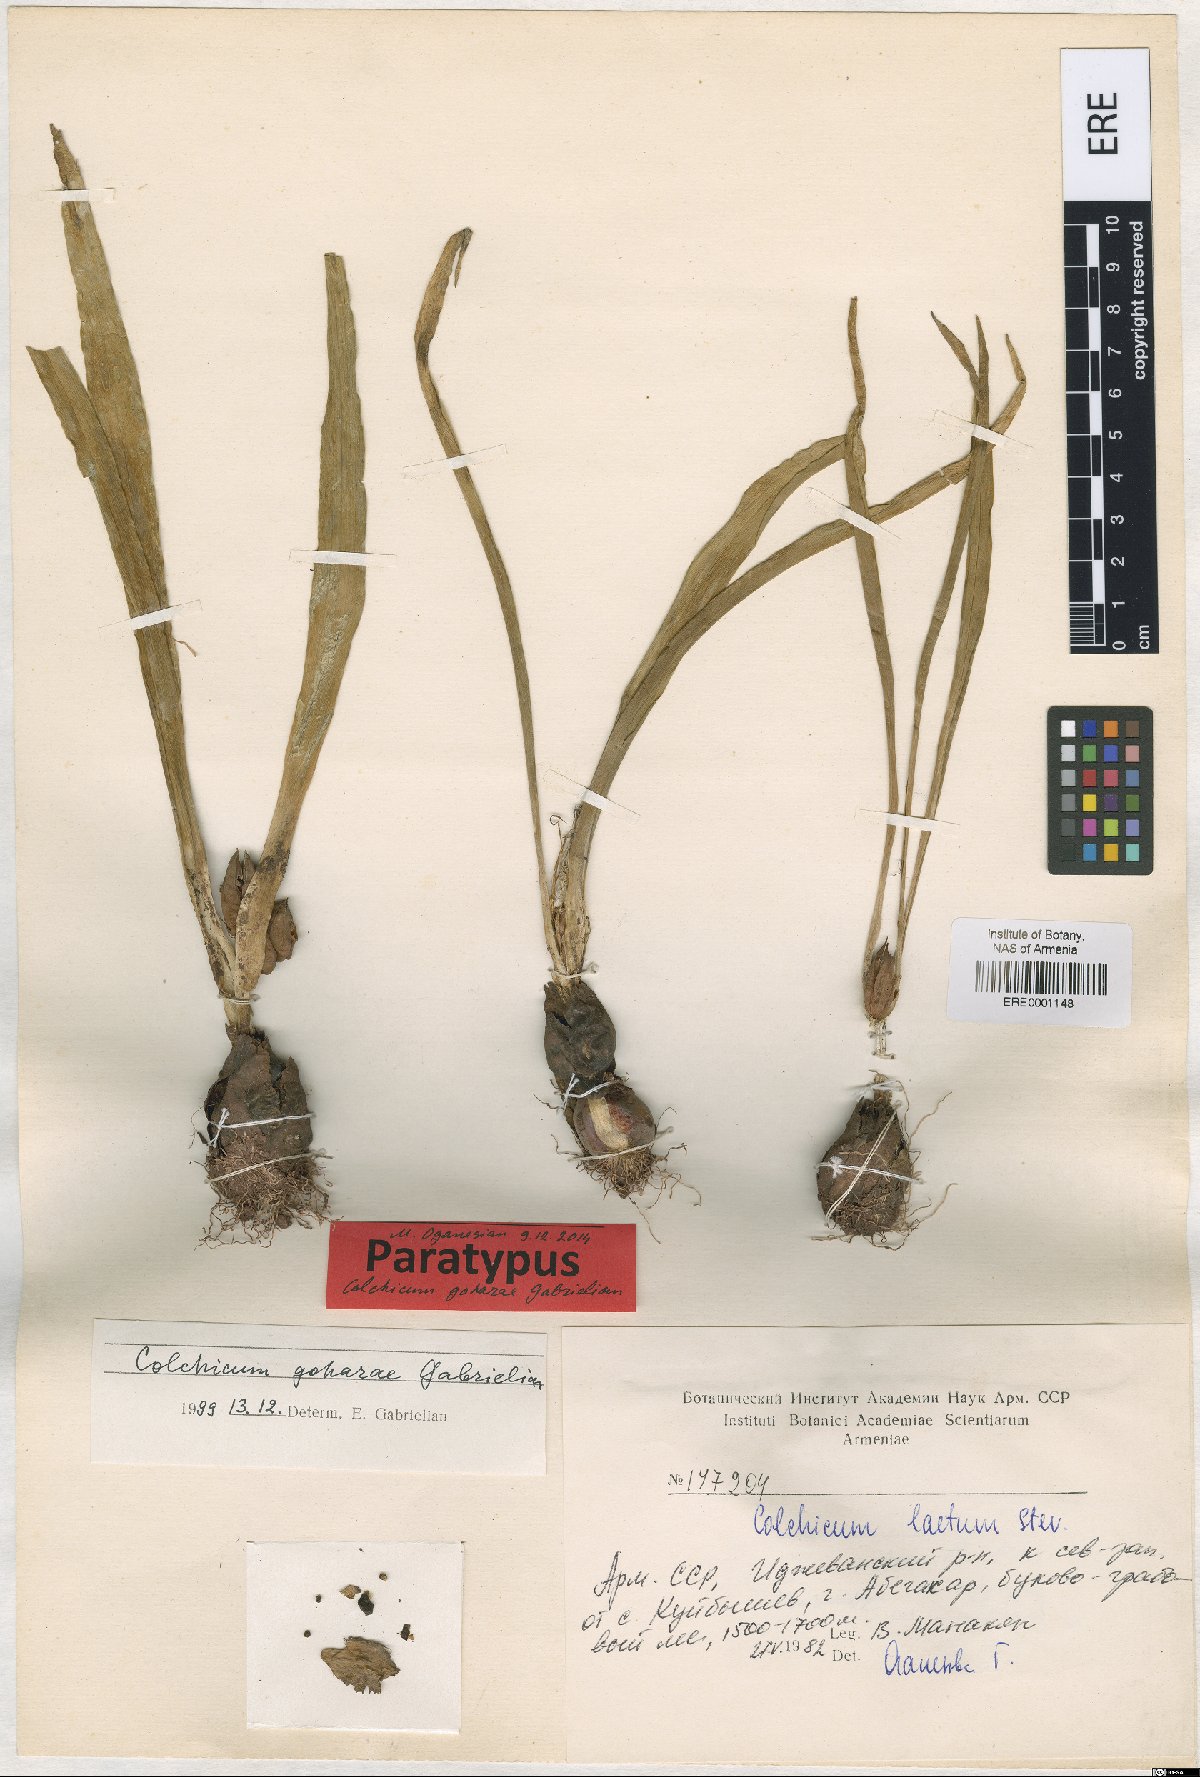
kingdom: Plantae
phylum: Tracheophyta
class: Liliopsida
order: Liliales
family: Colchicaceae
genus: Colchicum
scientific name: Colchicum szovitsii
